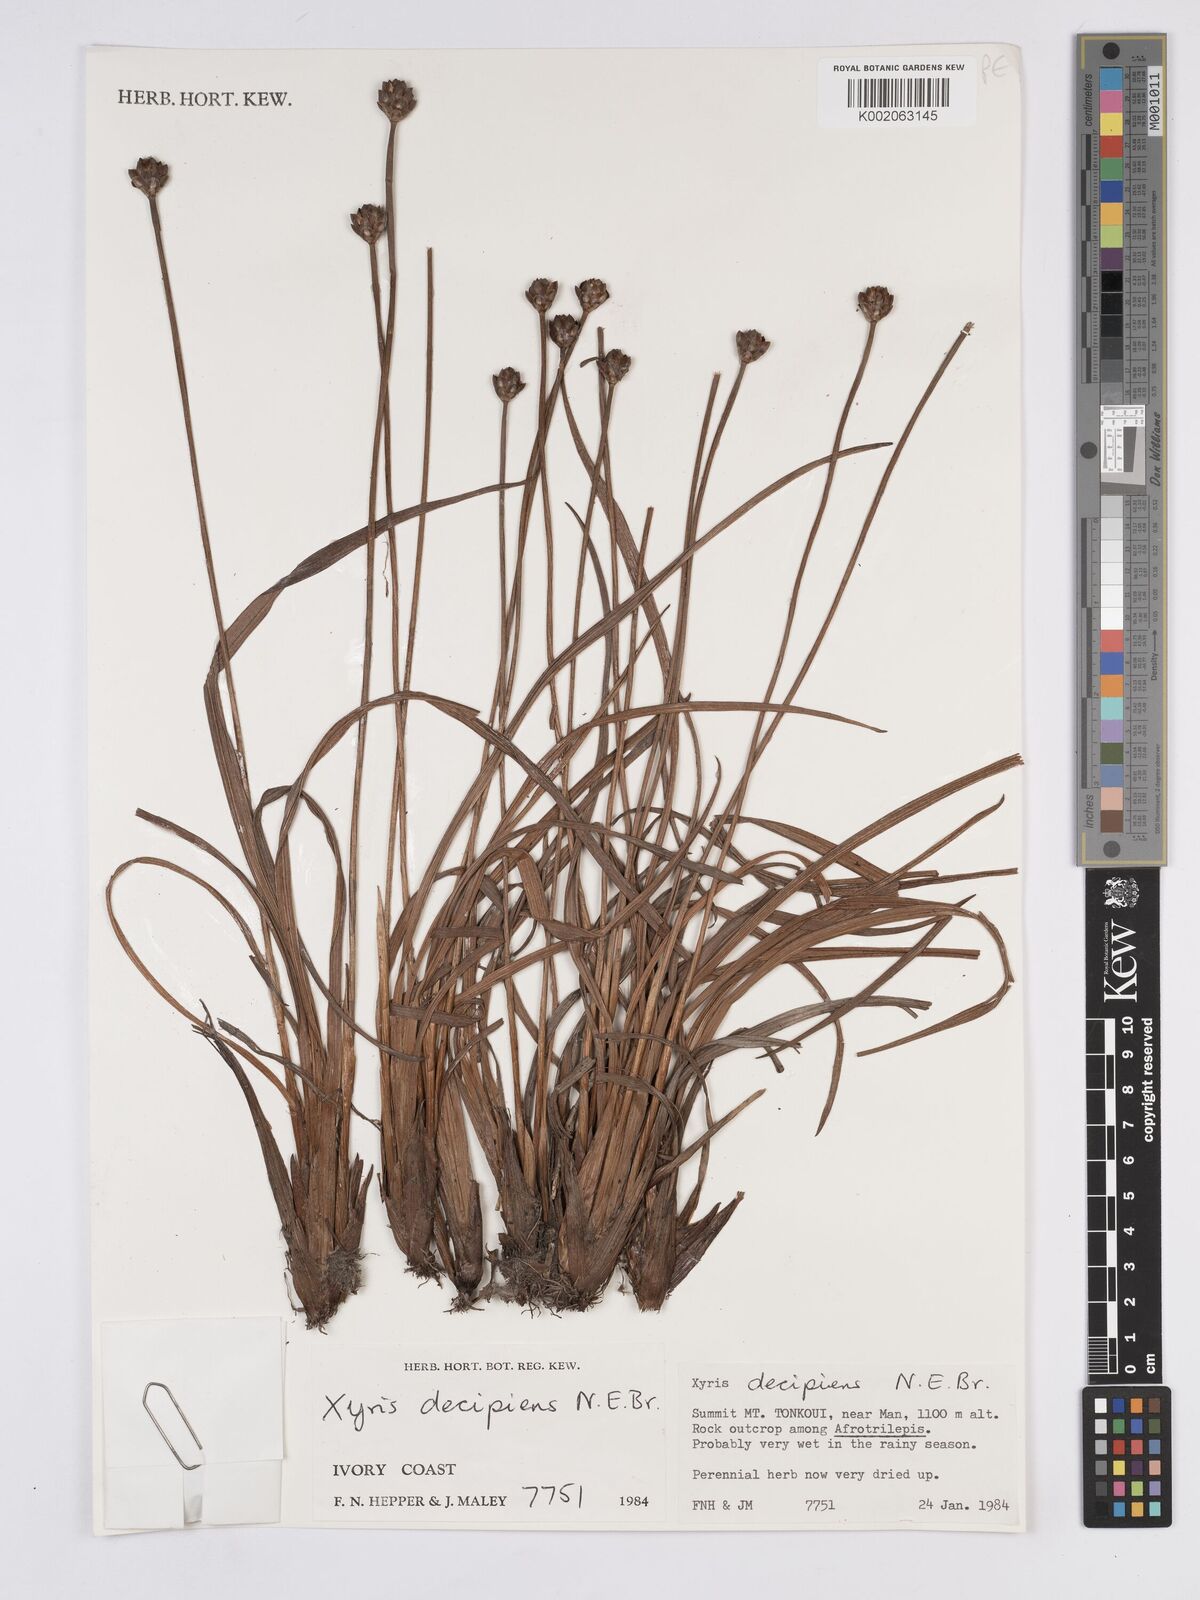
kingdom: Plantae
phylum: Tracheophyta
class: Liliopsida
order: Poales
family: Xyridaceae
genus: Xyris
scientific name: Xyris decipiens
